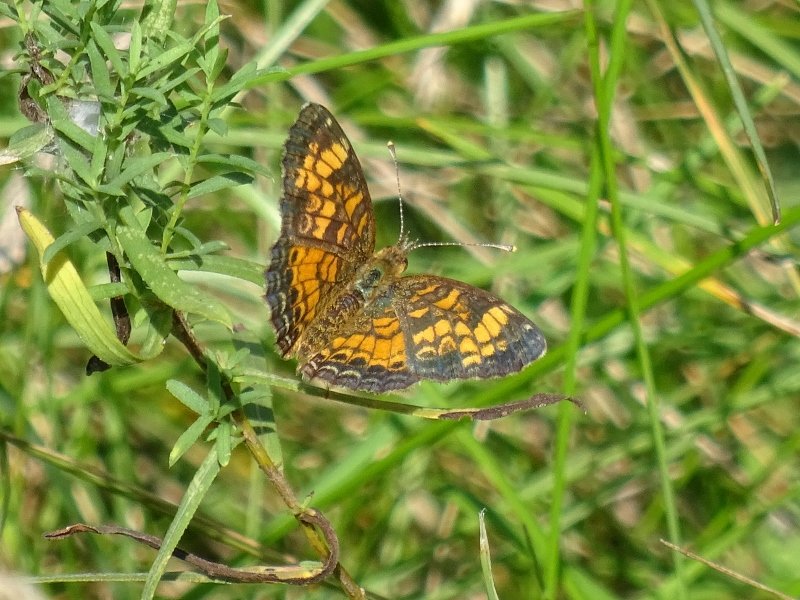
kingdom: Animalia
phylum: Arthropoda
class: Insecta
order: Lepidoptera
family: Nymphalidae
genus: Phyciodes
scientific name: Phyciodes
